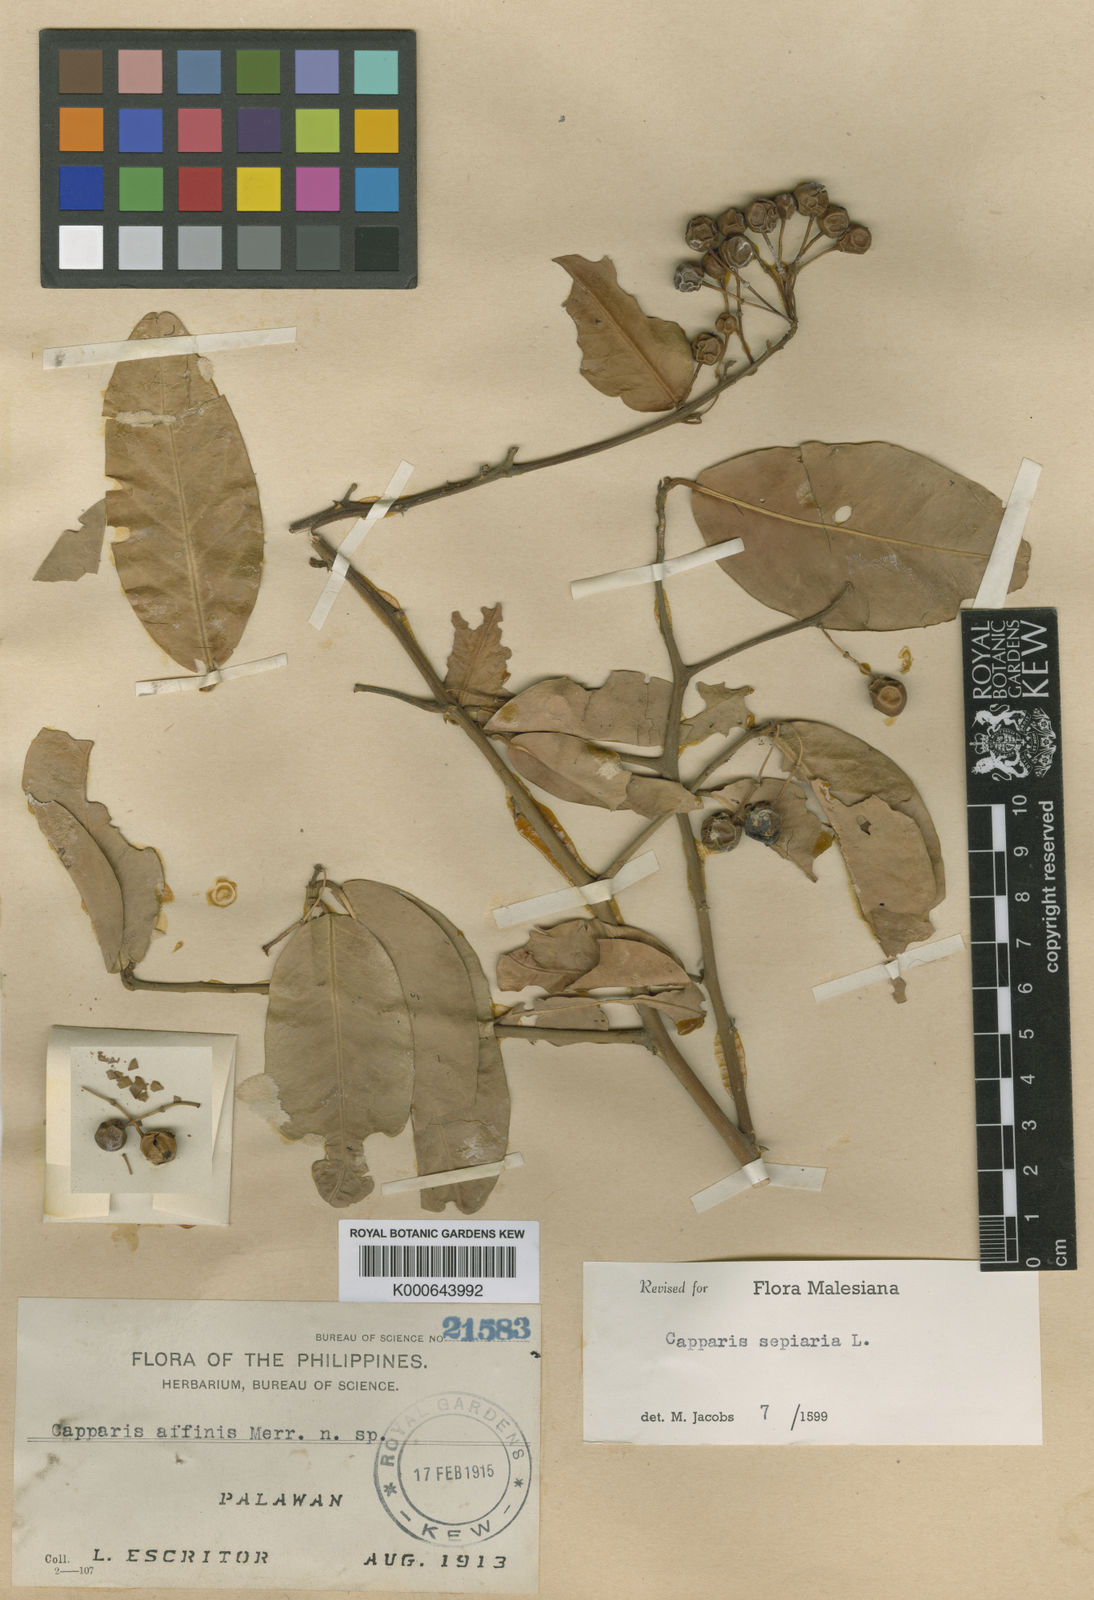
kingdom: Plantae
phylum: Tracheophyta
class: Magnoliopsida
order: Brassicales
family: Capparaceae
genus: Capparis
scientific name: Capparis sepiaria
